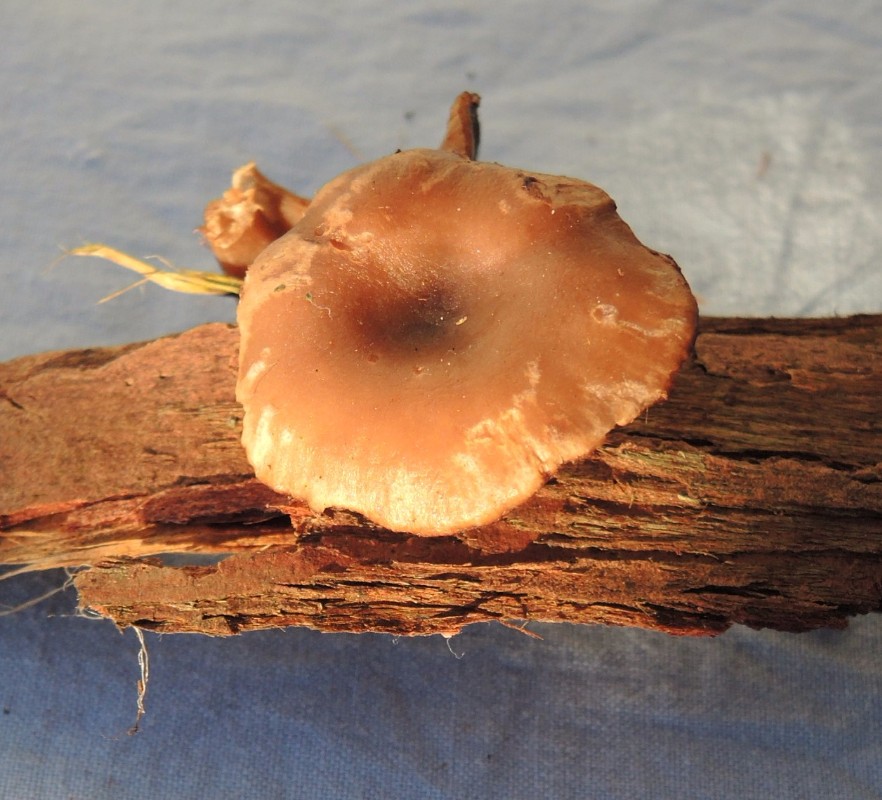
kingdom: Fungi
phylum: Basidiomycota
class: Agaricomycetes
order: Agaricales
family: Pseudoclitocybaceae
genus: Pseudoclitocybe
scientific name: Pseudoclitocybe cyathiformis
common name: almindelig bægertragthat
